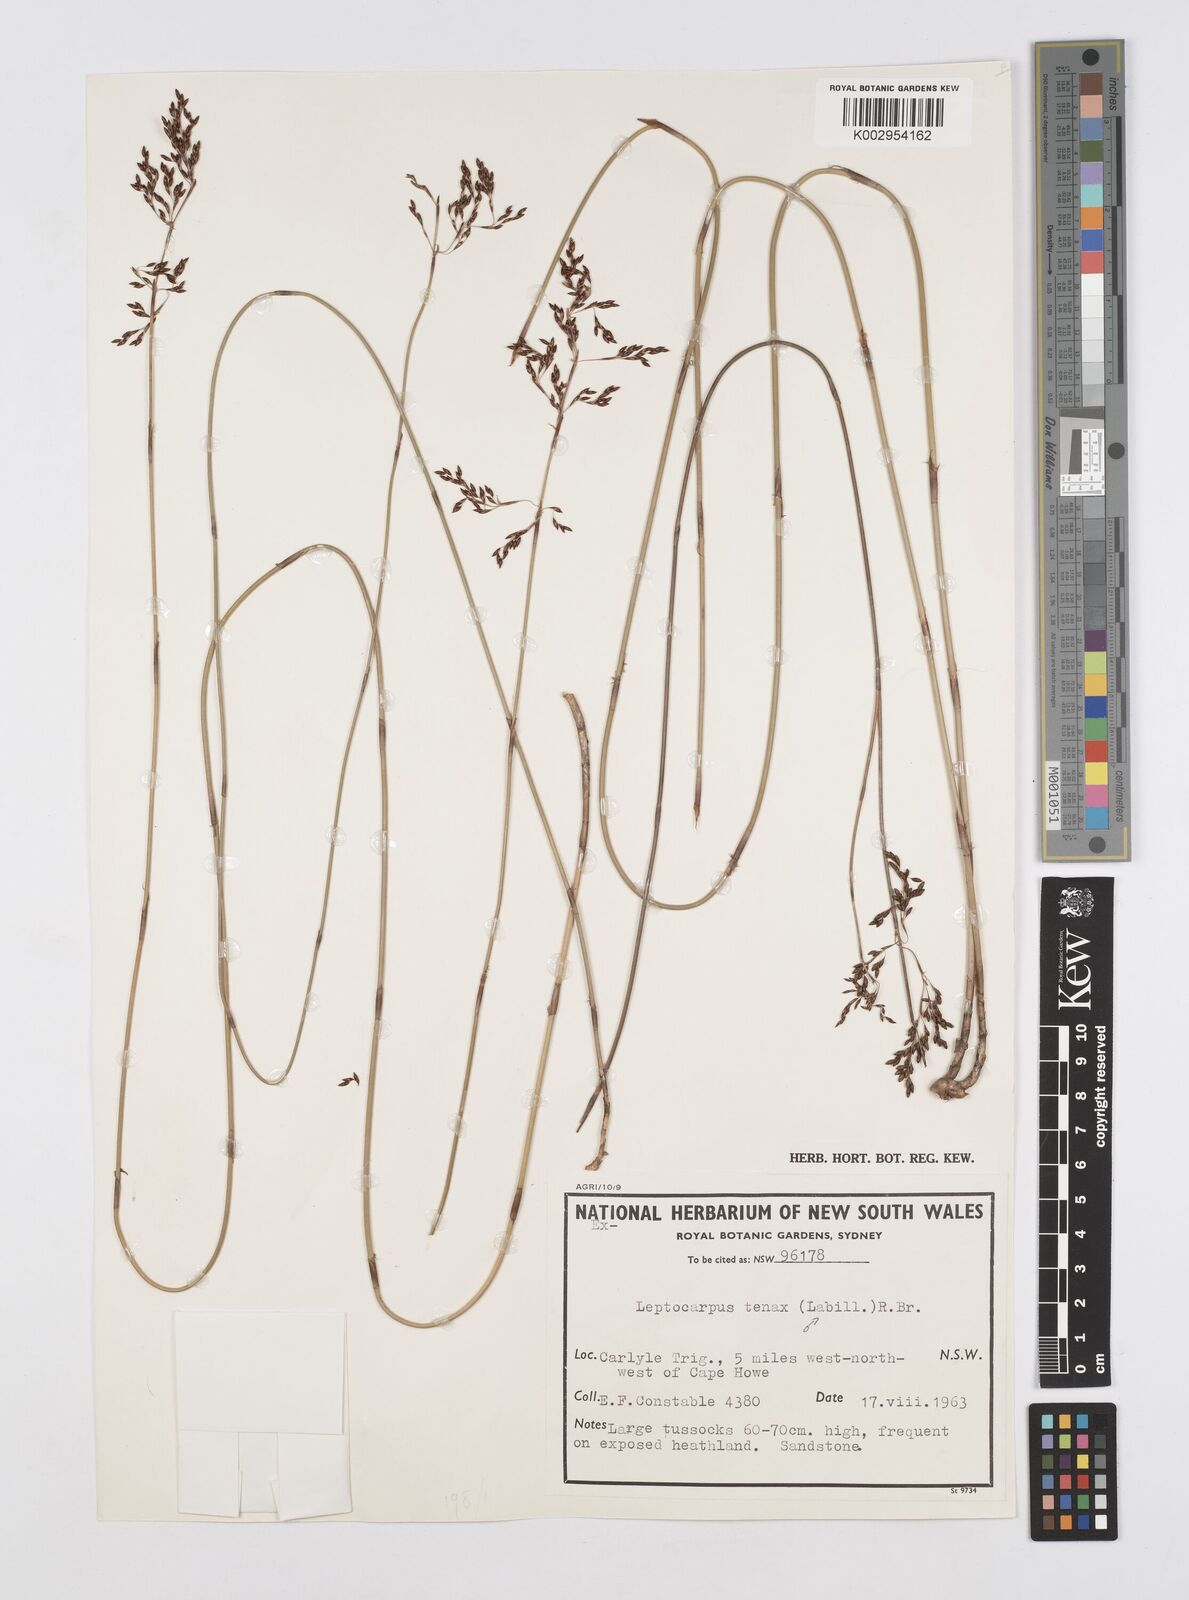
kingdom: Plantae
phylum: Tracheophyta
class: Liliopsida
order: Poales
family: Restionaceae
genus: Leptocarpus
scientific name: Leptocarpus tenax
